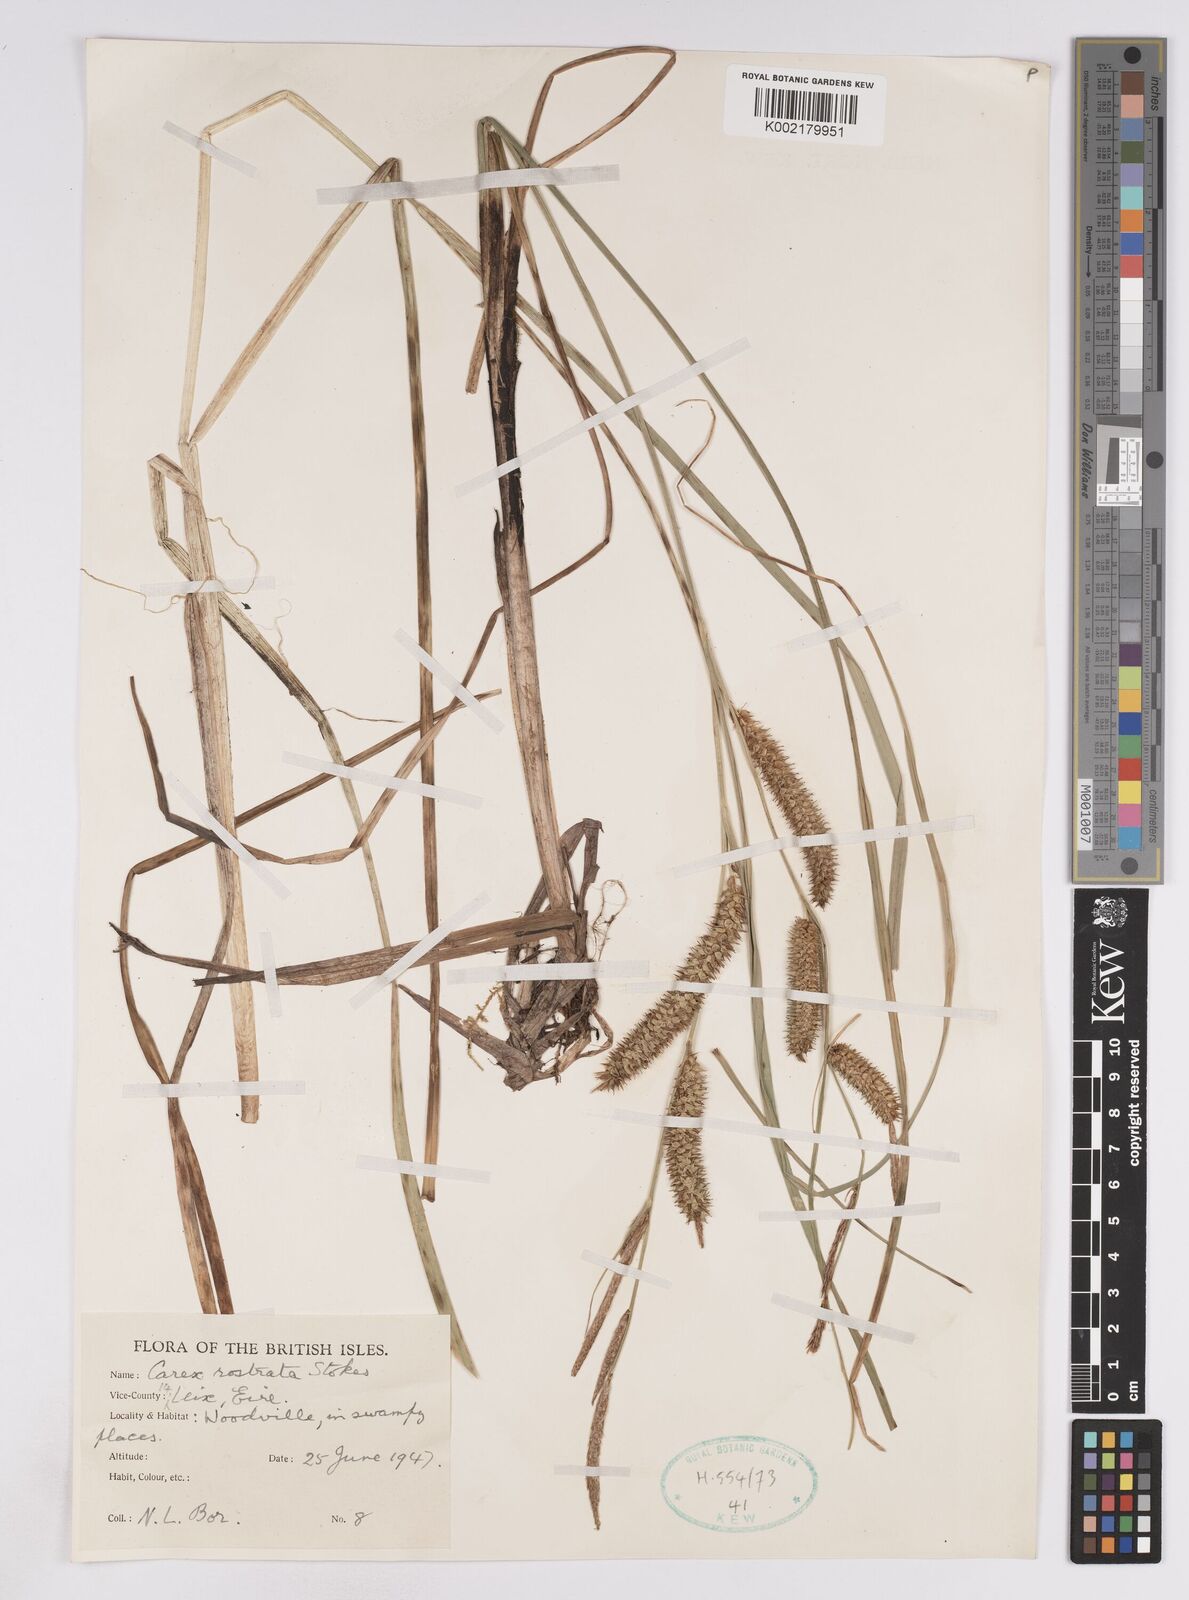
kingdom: Plantae
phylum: Tracheophyta
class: Liliopsida
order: Poales
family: Cyperaceae
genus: Carex
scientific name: Carex utriculata
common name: Beaked sedge
